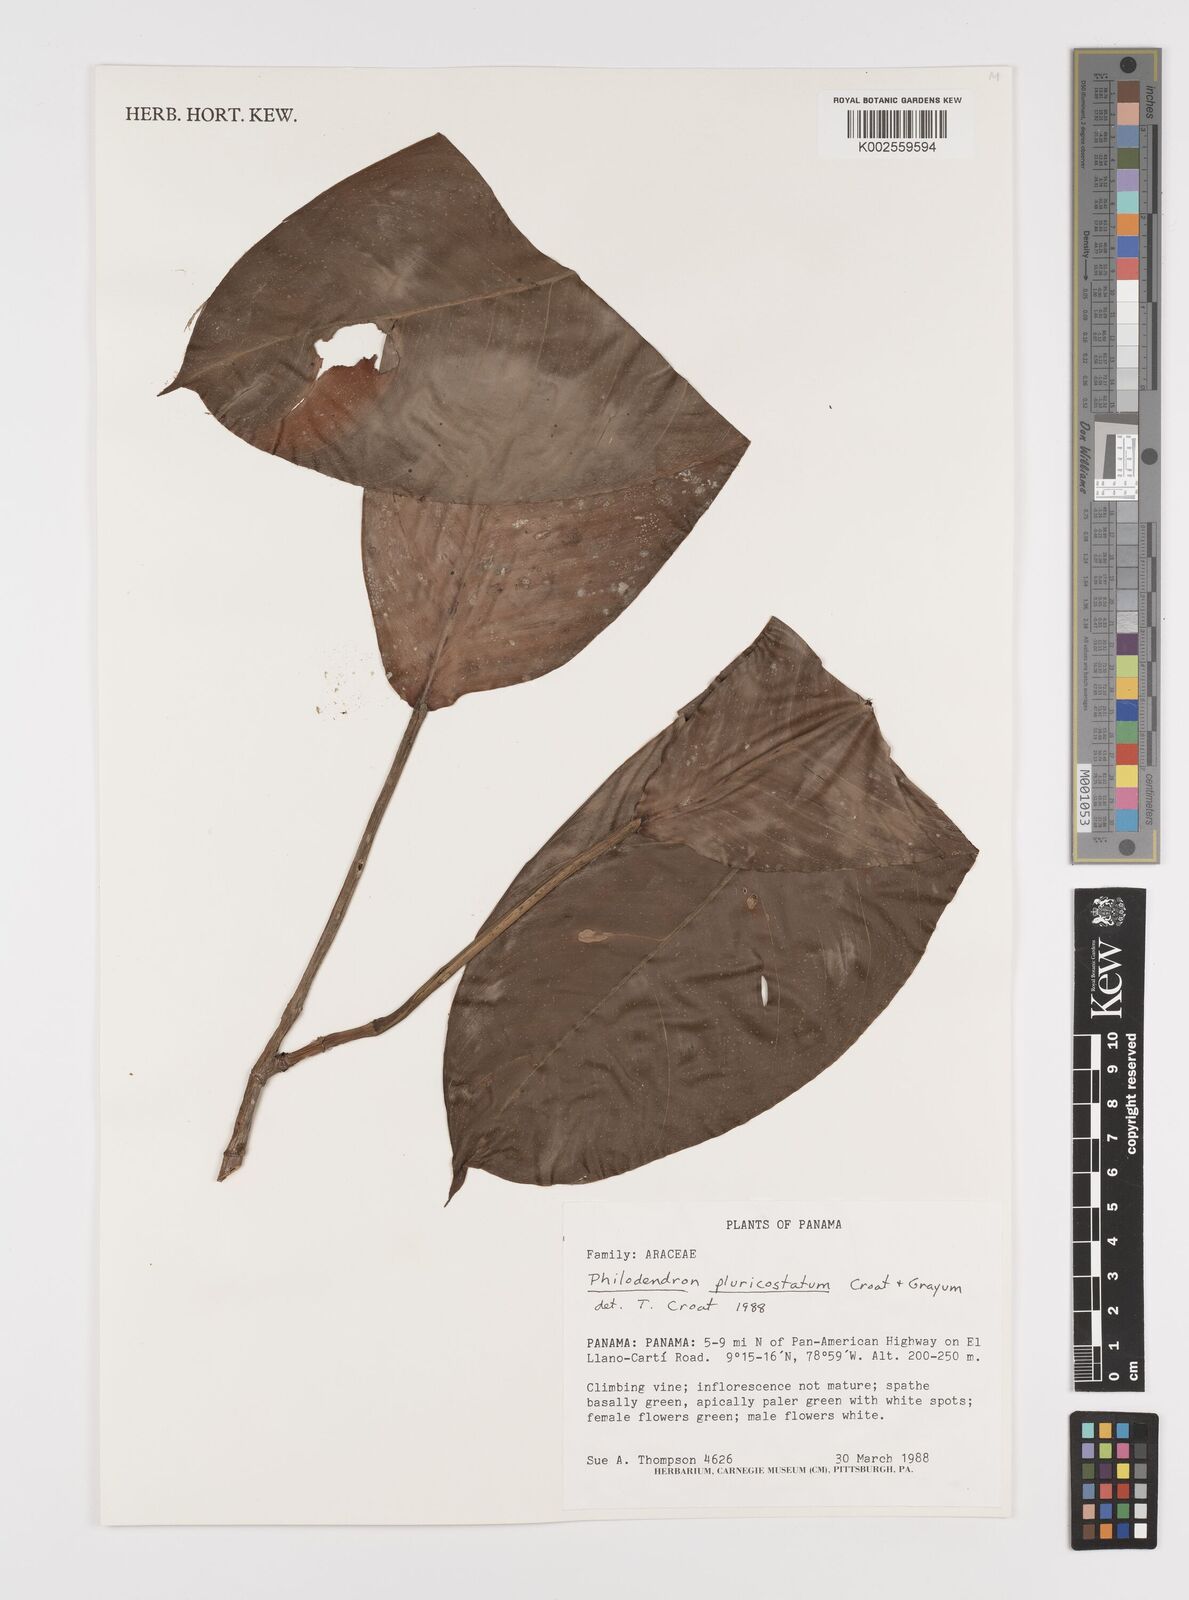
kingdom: Plantae
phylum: Tracheophyta
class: Liliopsida
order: Alismatales
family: Araceae
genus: Philodendron
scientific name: Philodendron
